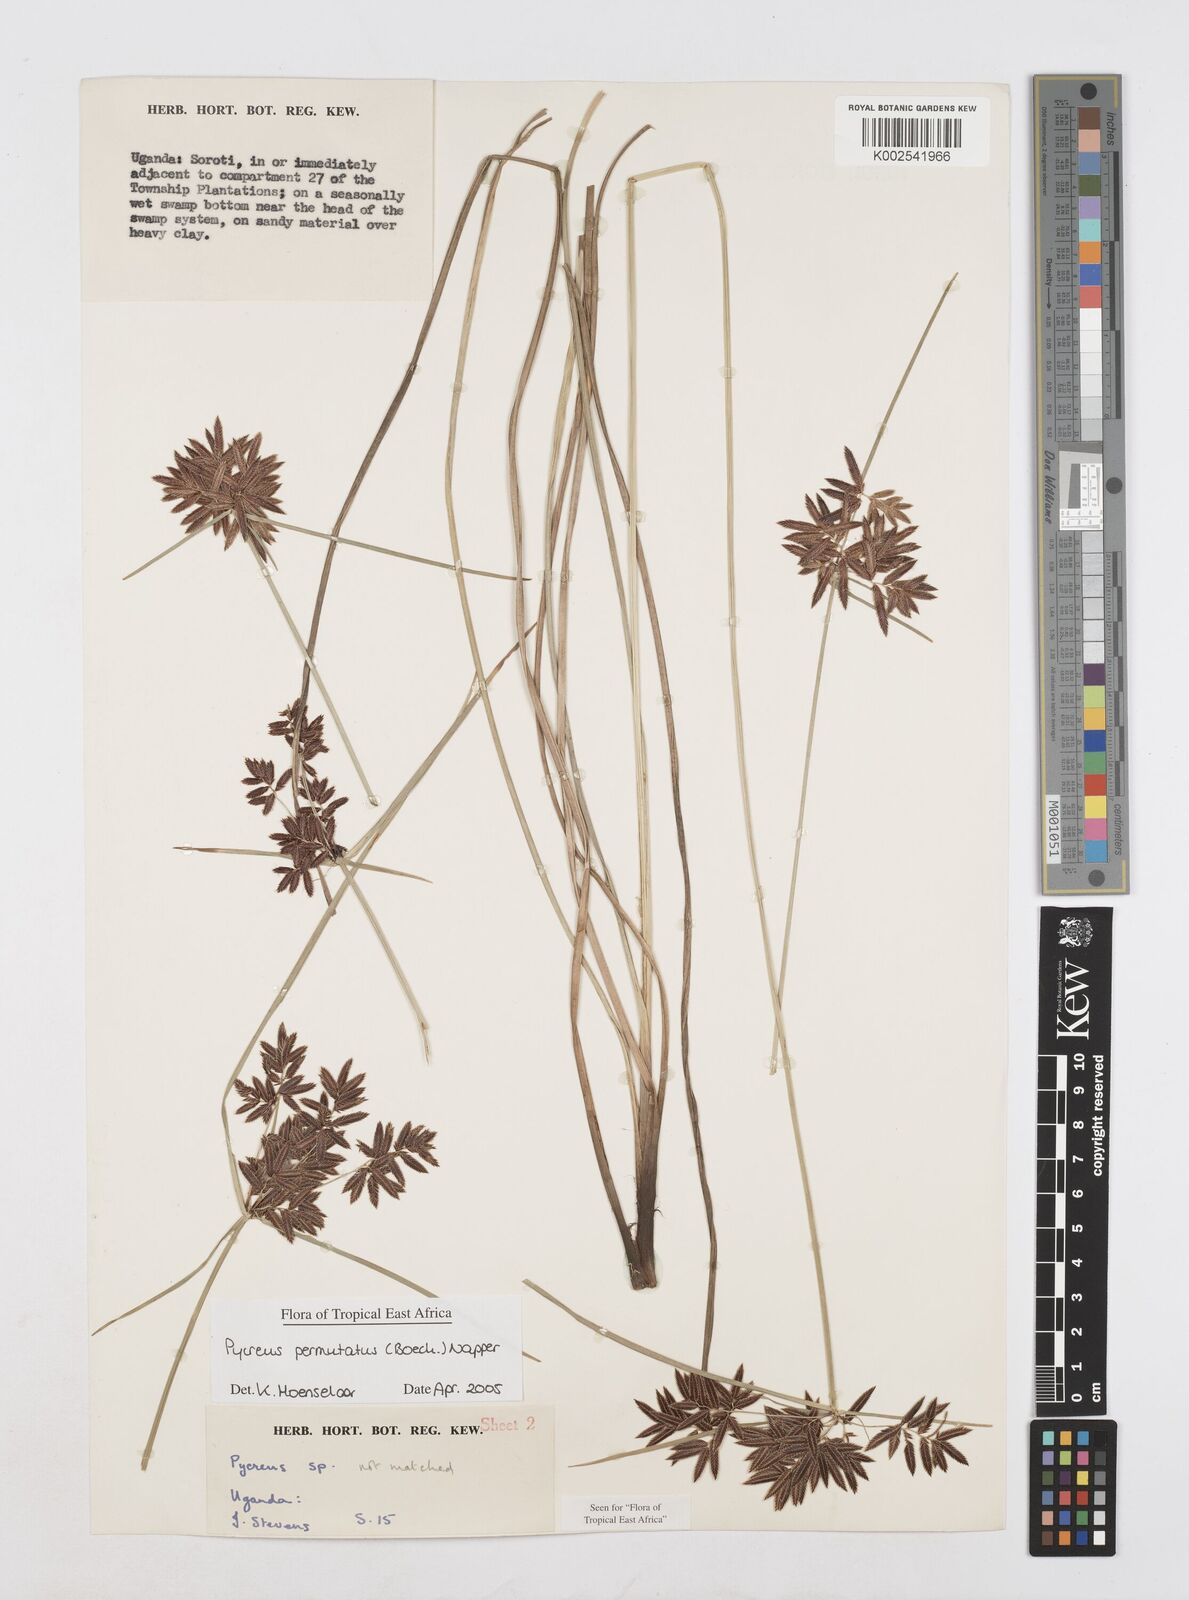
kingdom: Plantae
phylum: Tracheophyta
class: Liliopsida
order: Poales
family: Cyperaceae
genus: Cyperus
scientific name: Cyperus nigricans
